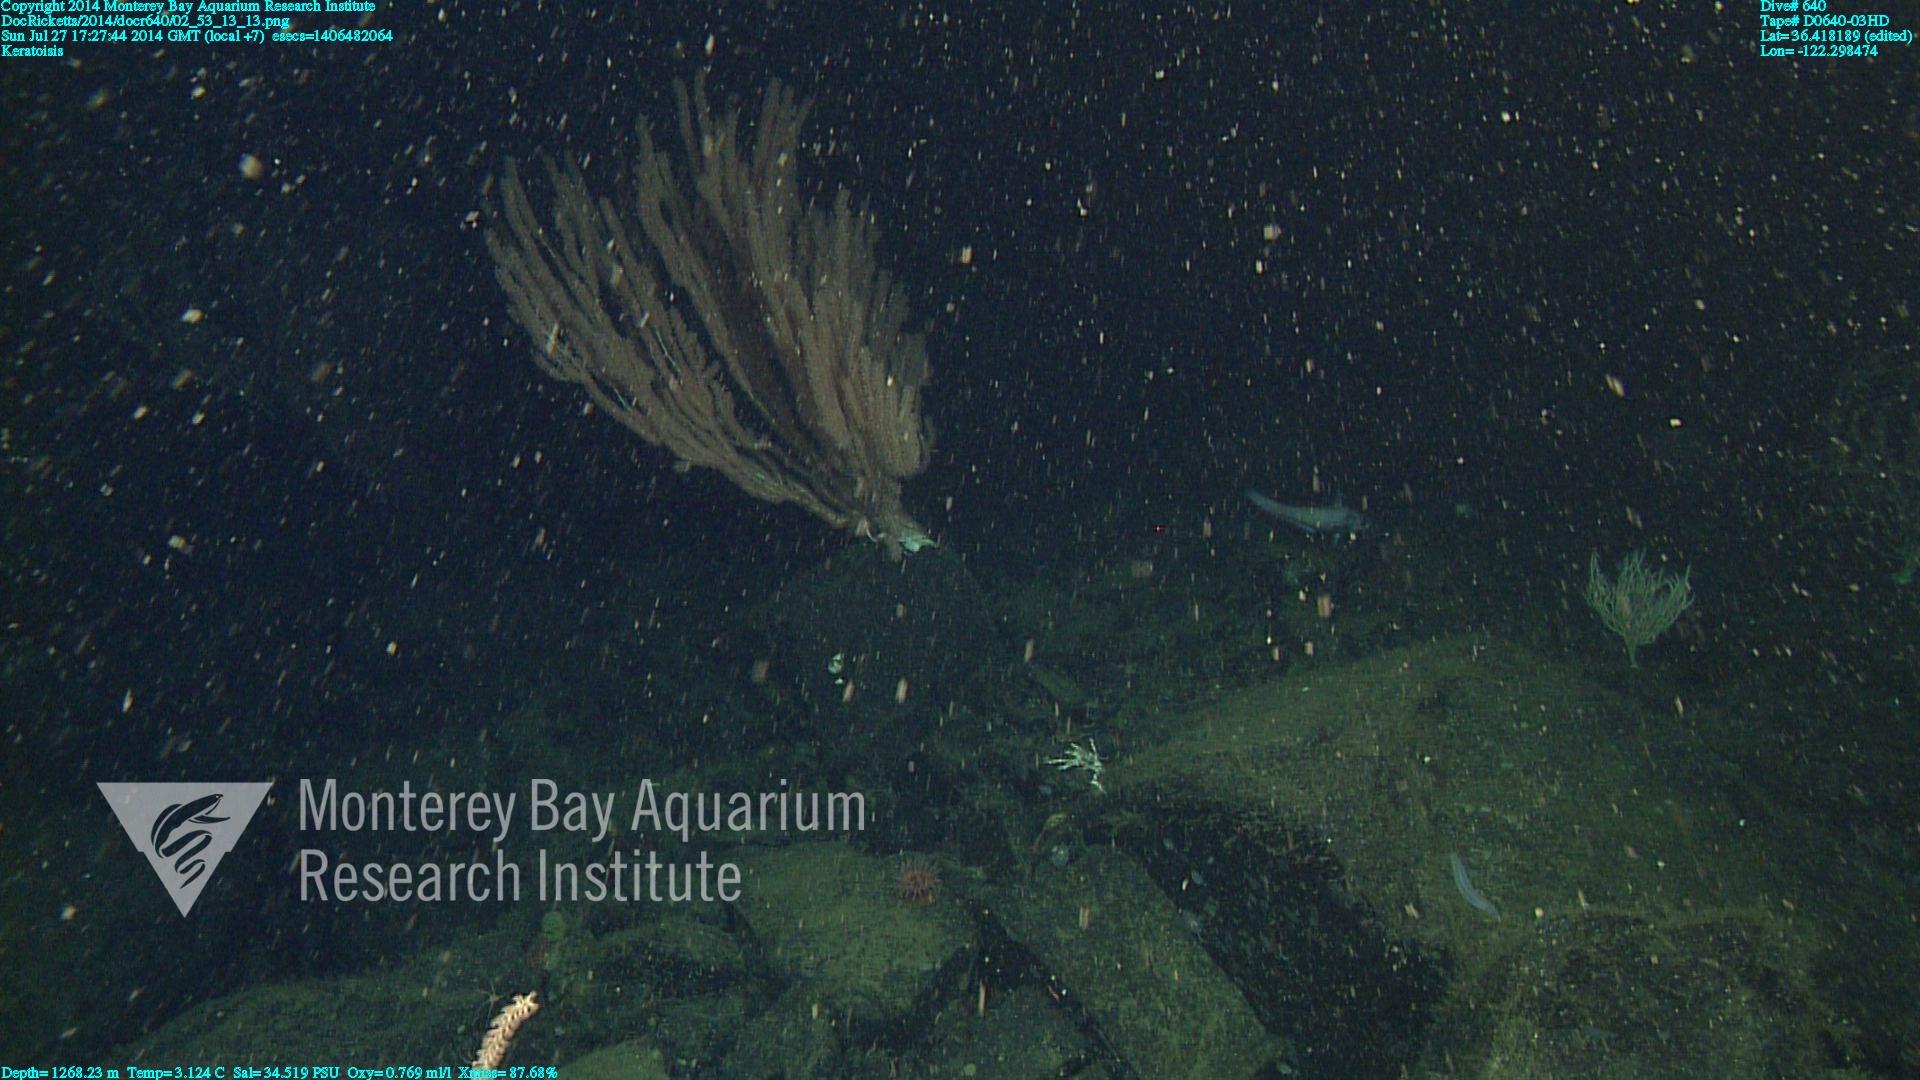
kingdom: Animalia
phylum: Cnidaria
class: Anthozoa
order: Scleralcyonacea
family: Keratoisididae
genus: Keratoisis
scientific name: Keratoisis
